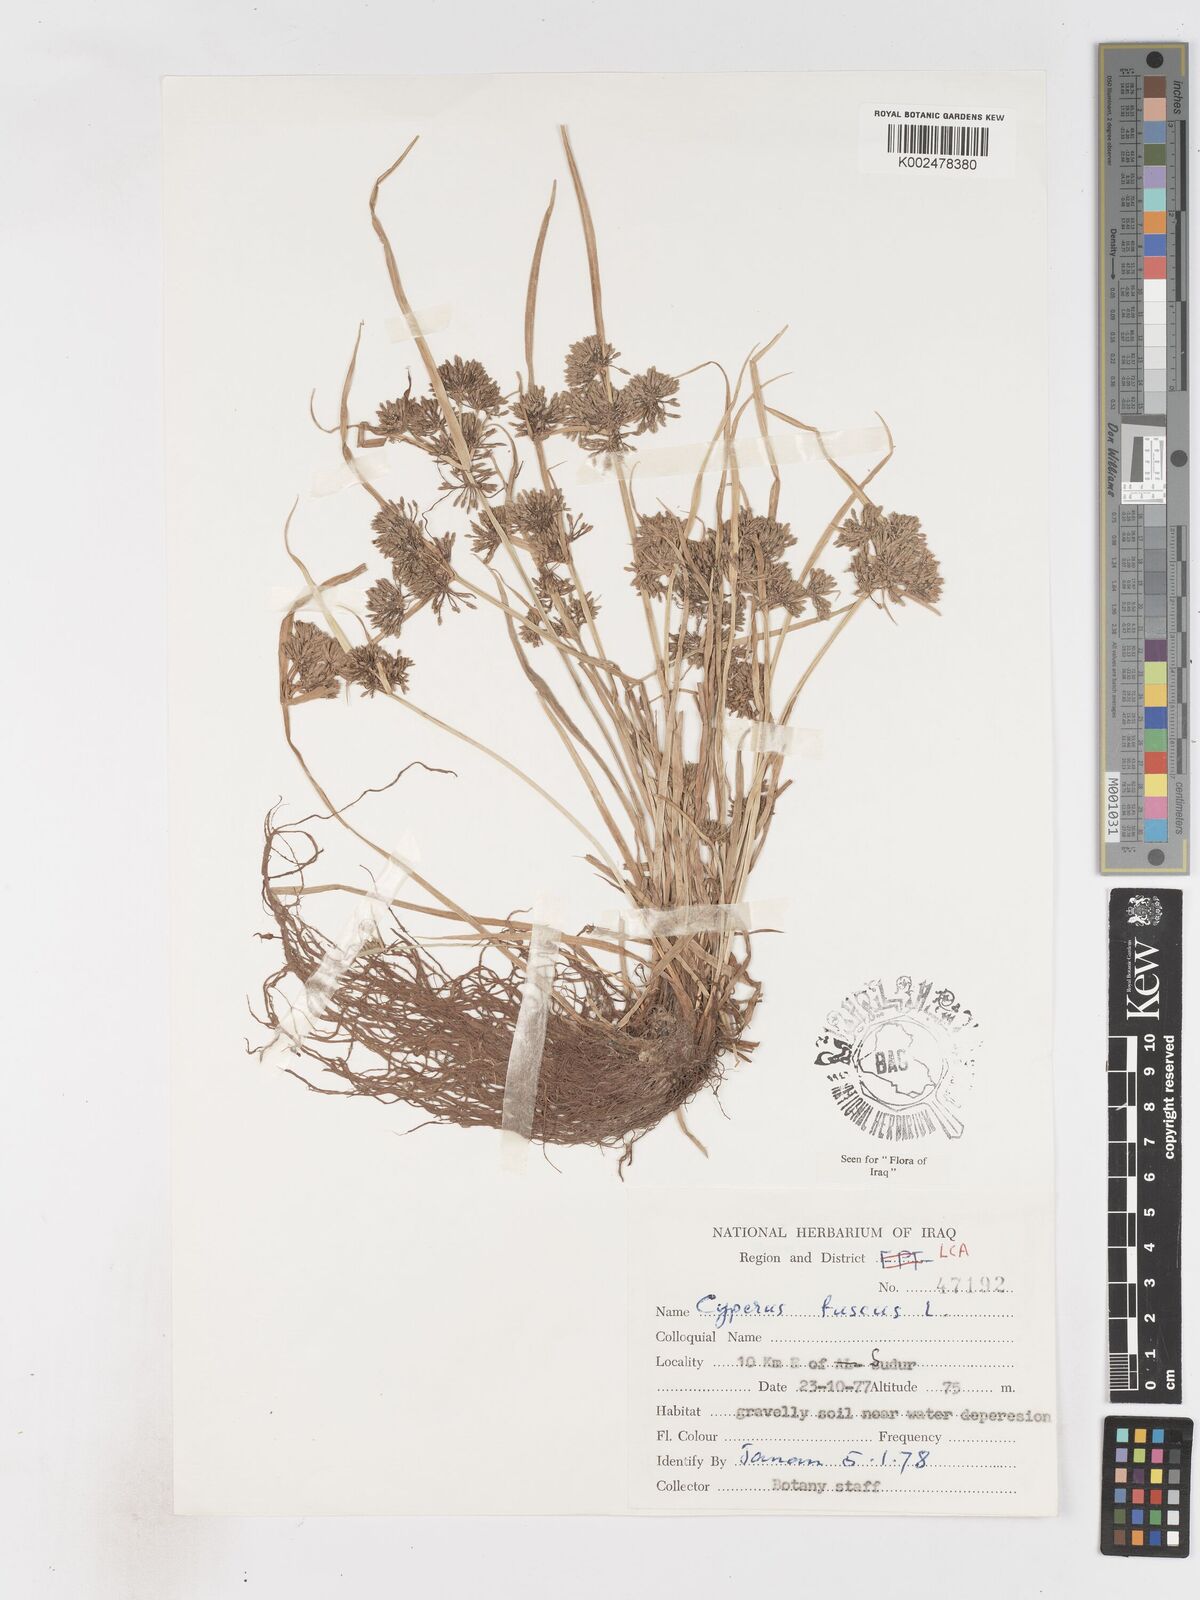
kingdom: Plantae
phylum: Tracheophyta
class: Liliopsida
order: Poales
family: Cyperaceae
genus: Cyperus
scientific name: Cyperus fuscus
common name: Brown galingale
